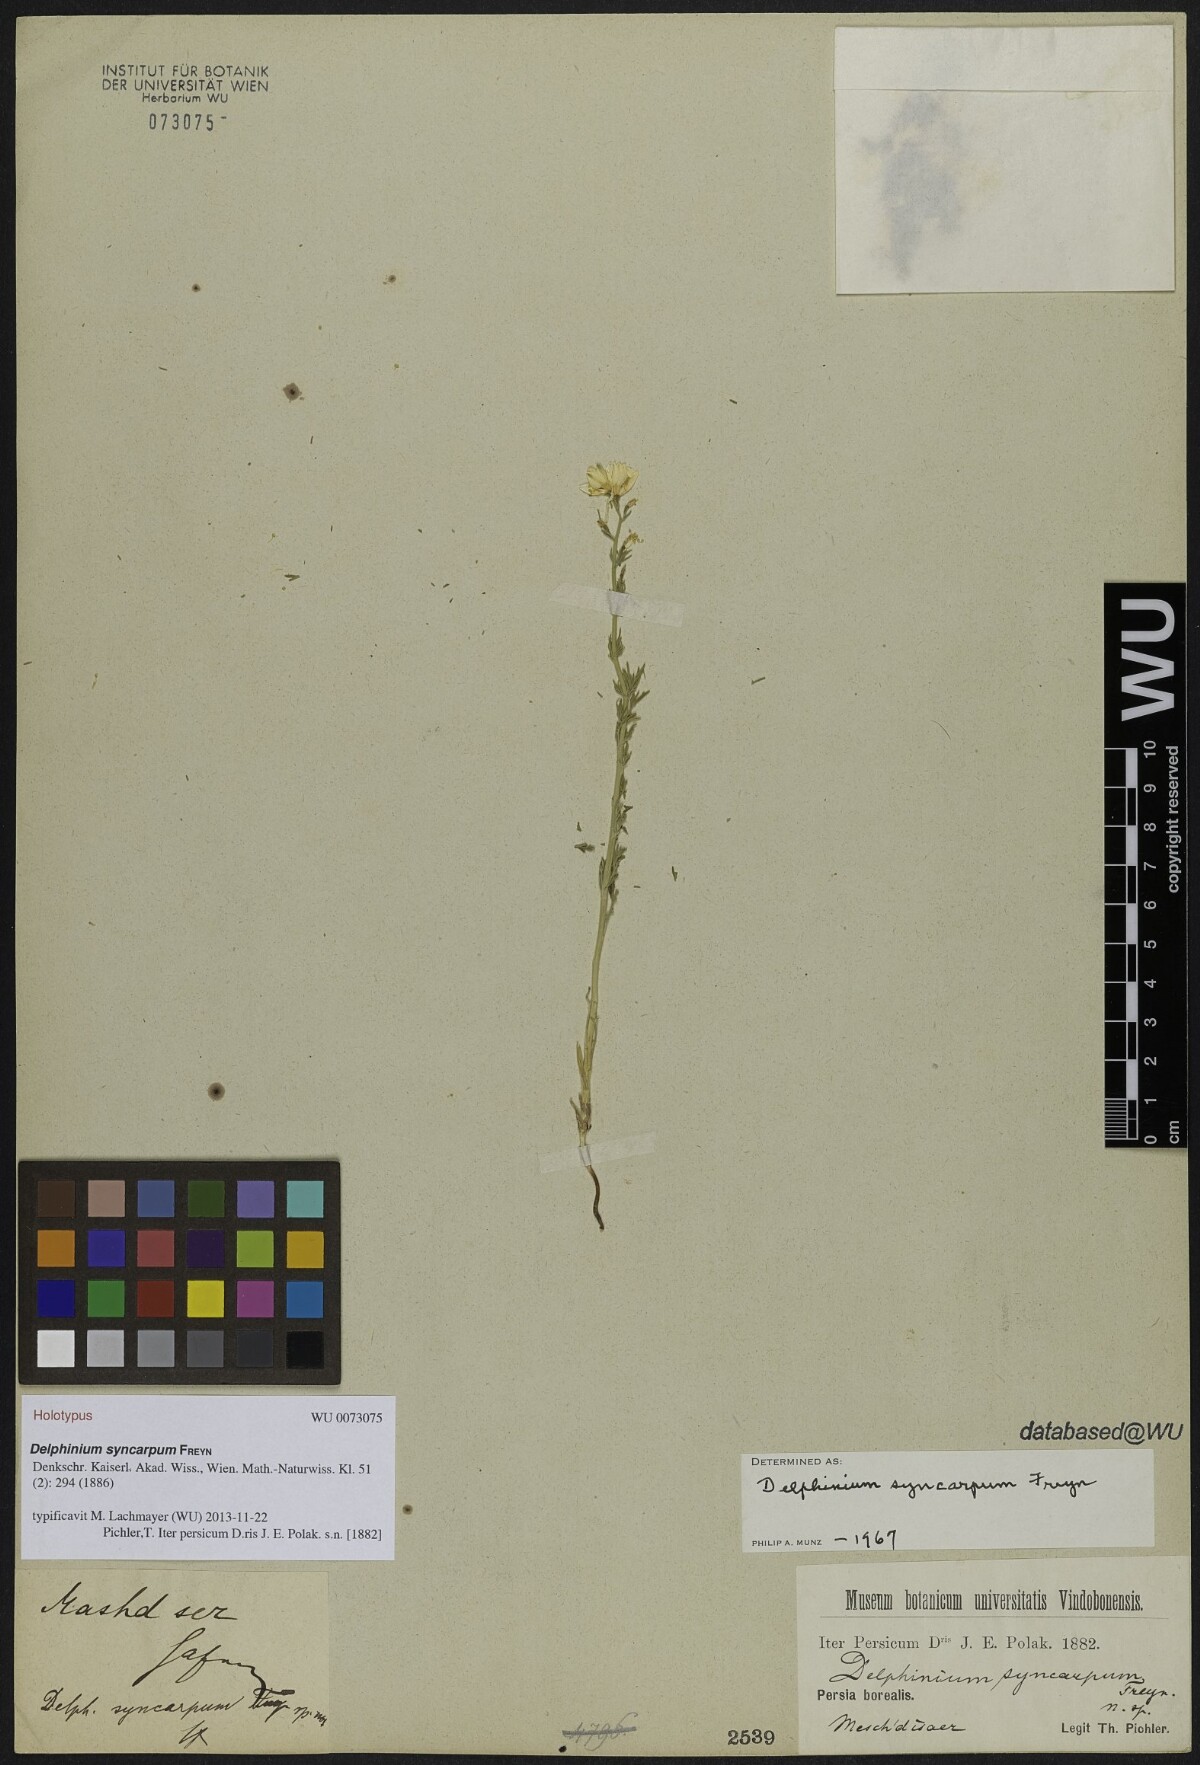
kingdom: Plantae
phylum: Tracheophyta
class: Magnoliopsida
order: Ranunculales
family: Ranunculaceae
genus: Delphinium
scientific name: Delphinium syncarpum
